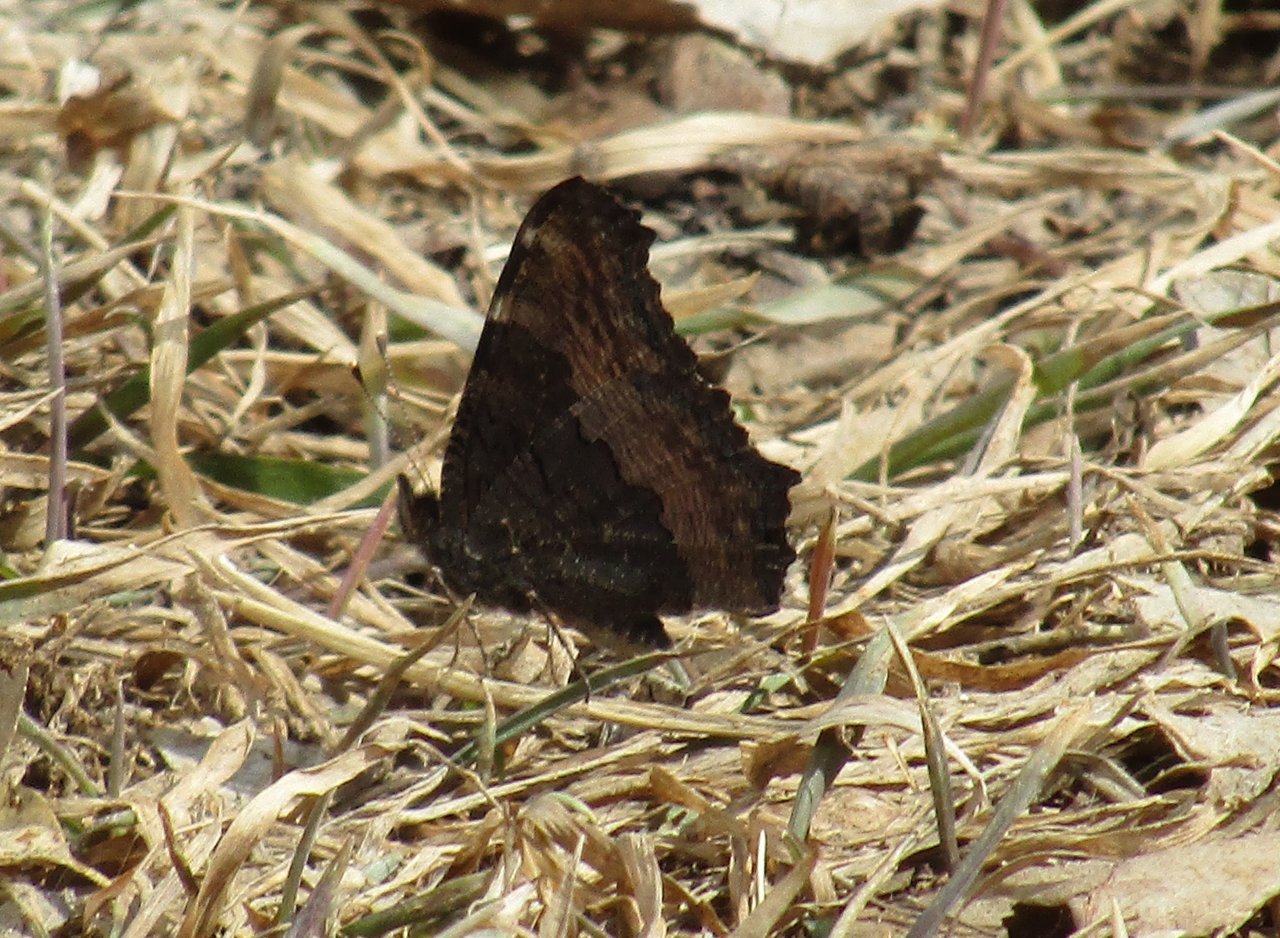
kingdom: Animalia
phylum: Arthropoda
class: Insecta
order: Lepidoptera
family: Nymphalidae
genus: Aglais
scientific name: Aglais milberti
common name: Milbert's Tortoiseshell
